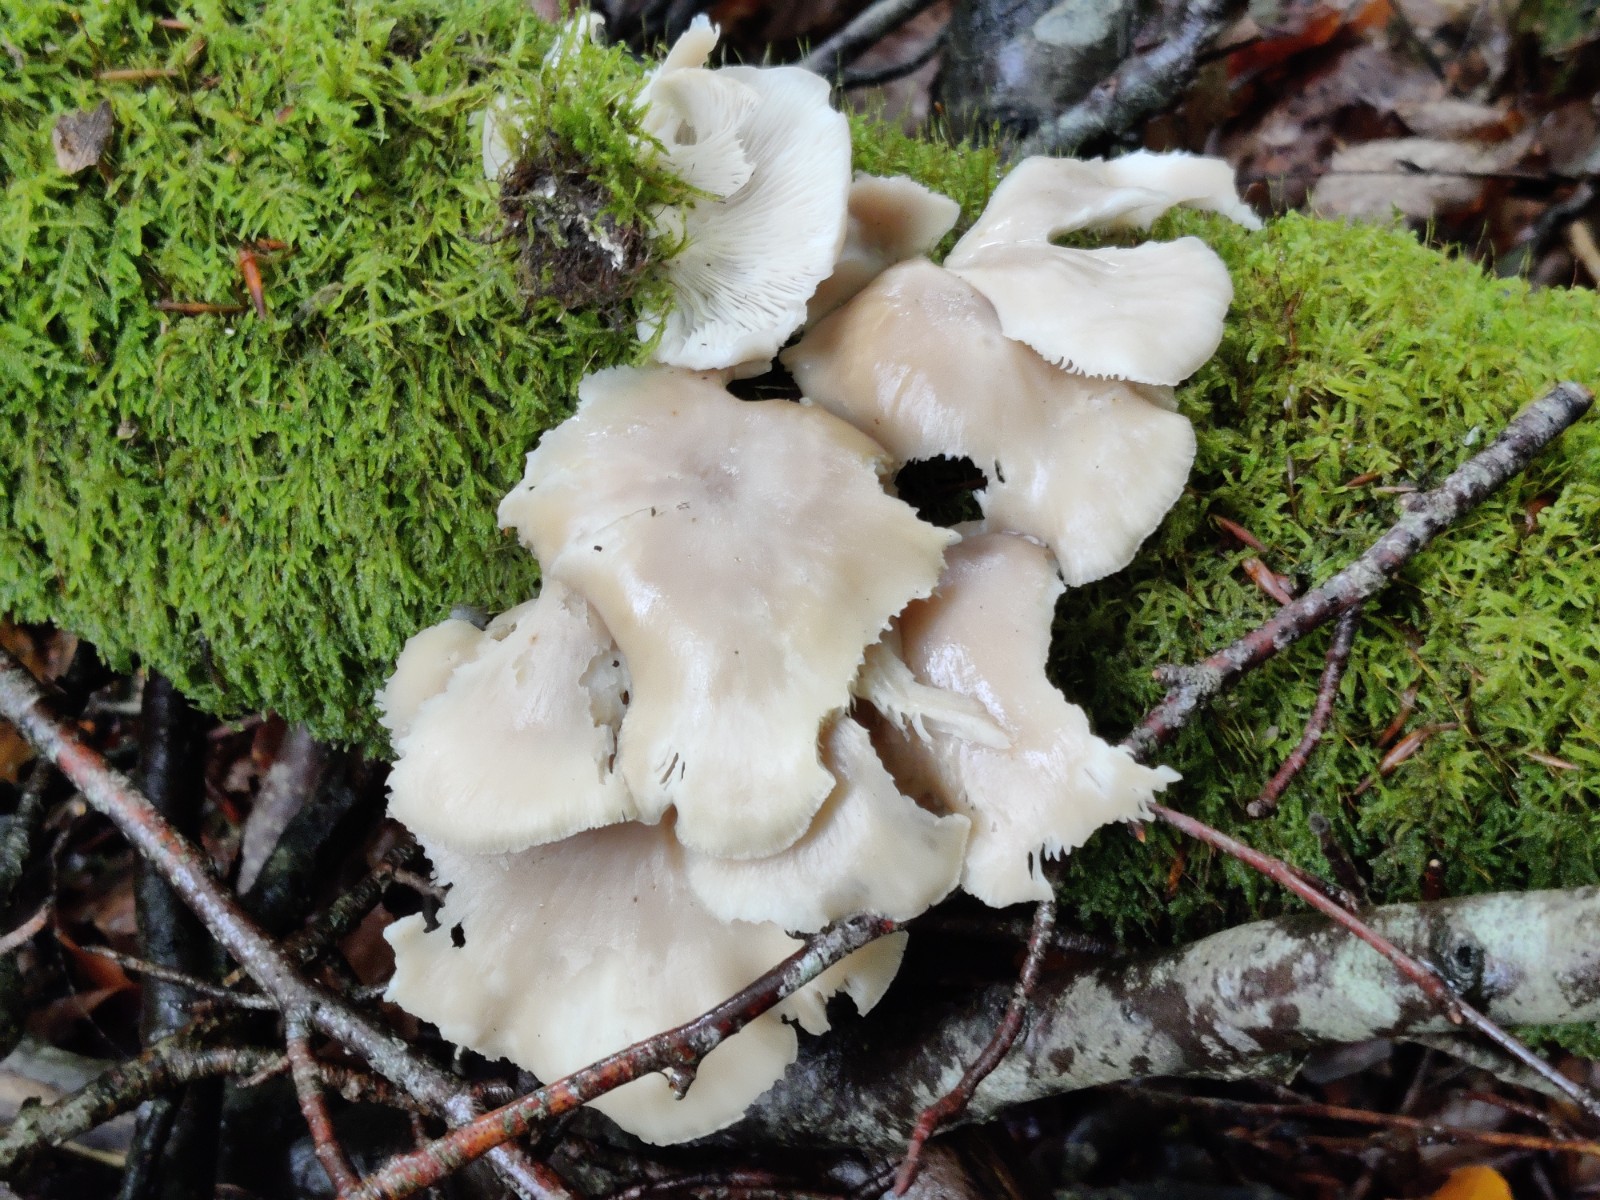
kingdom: Fungi
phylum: Basidiomycota
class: Agaricomycetes
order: Agaricales
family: Pleurotaceae
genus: Pleurotus
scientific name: Pleurotus pulmonarius
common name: sommer-østershat
